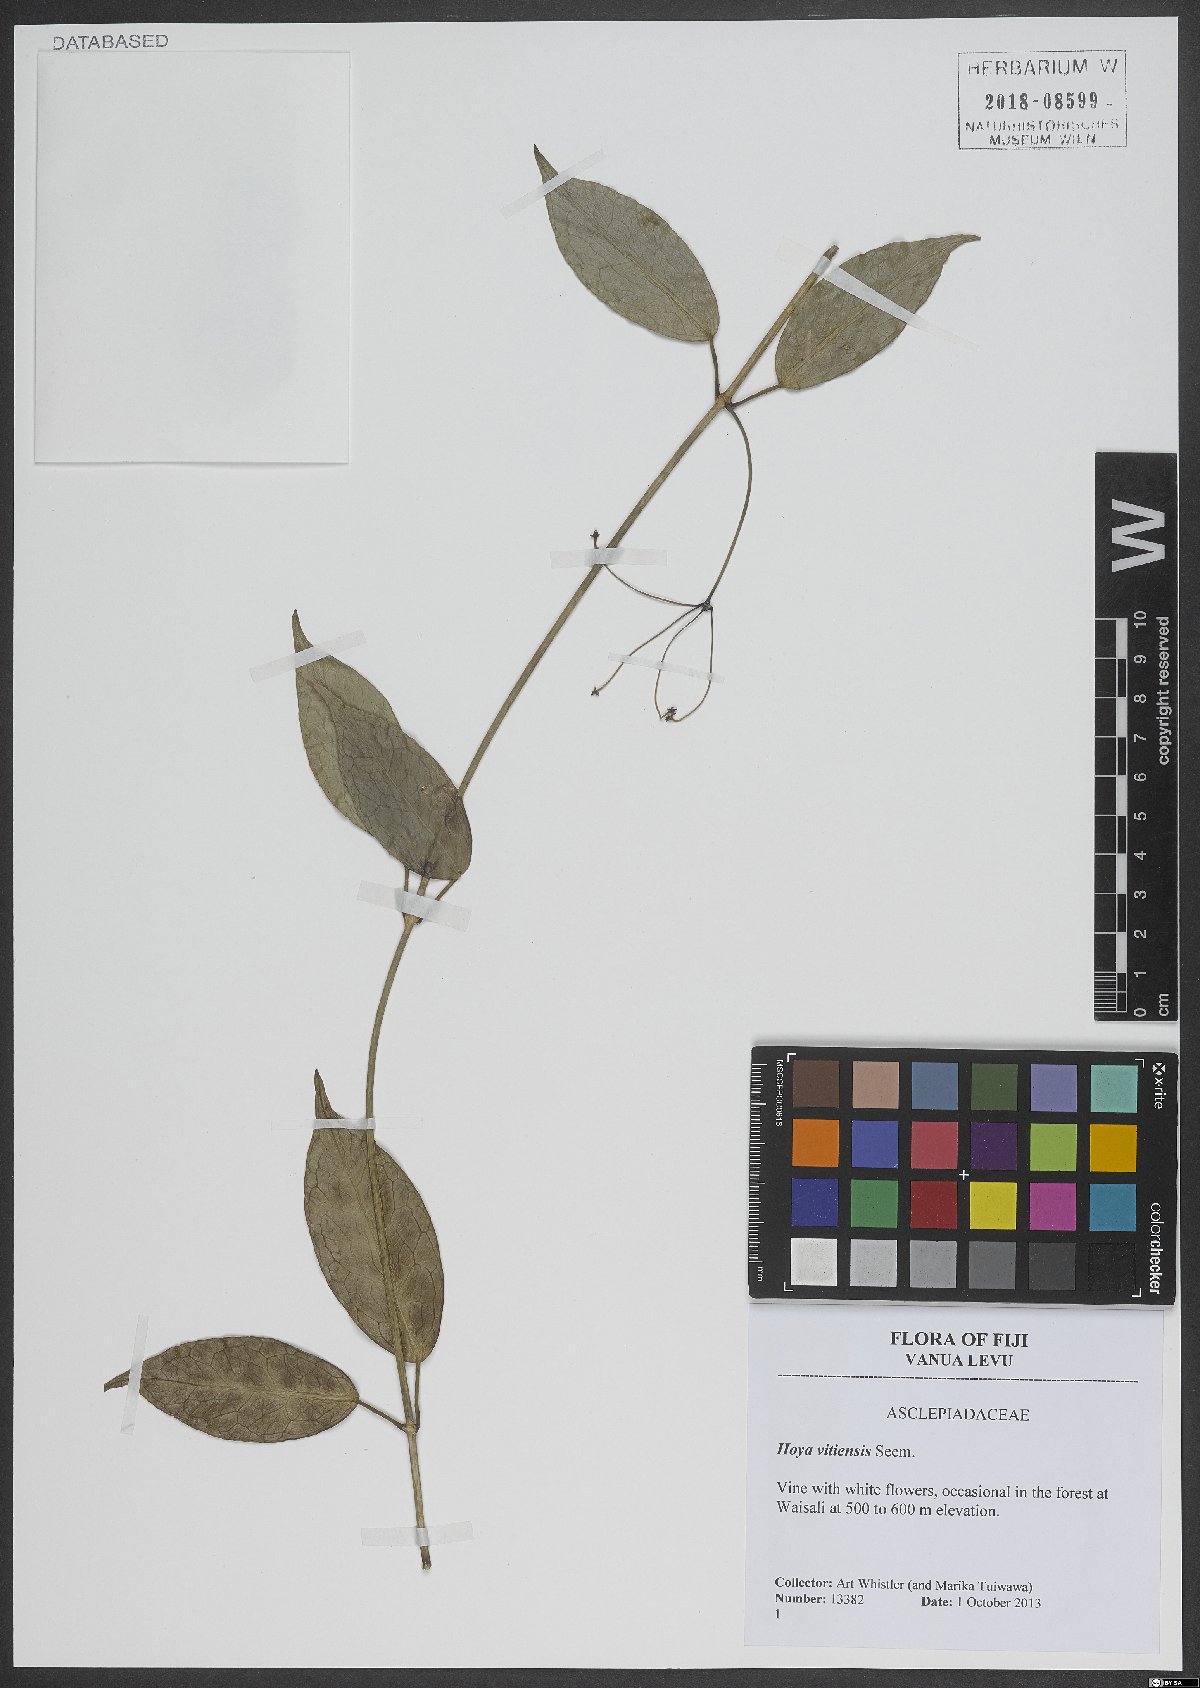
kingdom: Plantae
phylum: Tracheophyta
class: Magnoliopsida
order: Gentianales
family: Apocynaceae
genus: Hoya
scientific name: Hoya vitiensis
